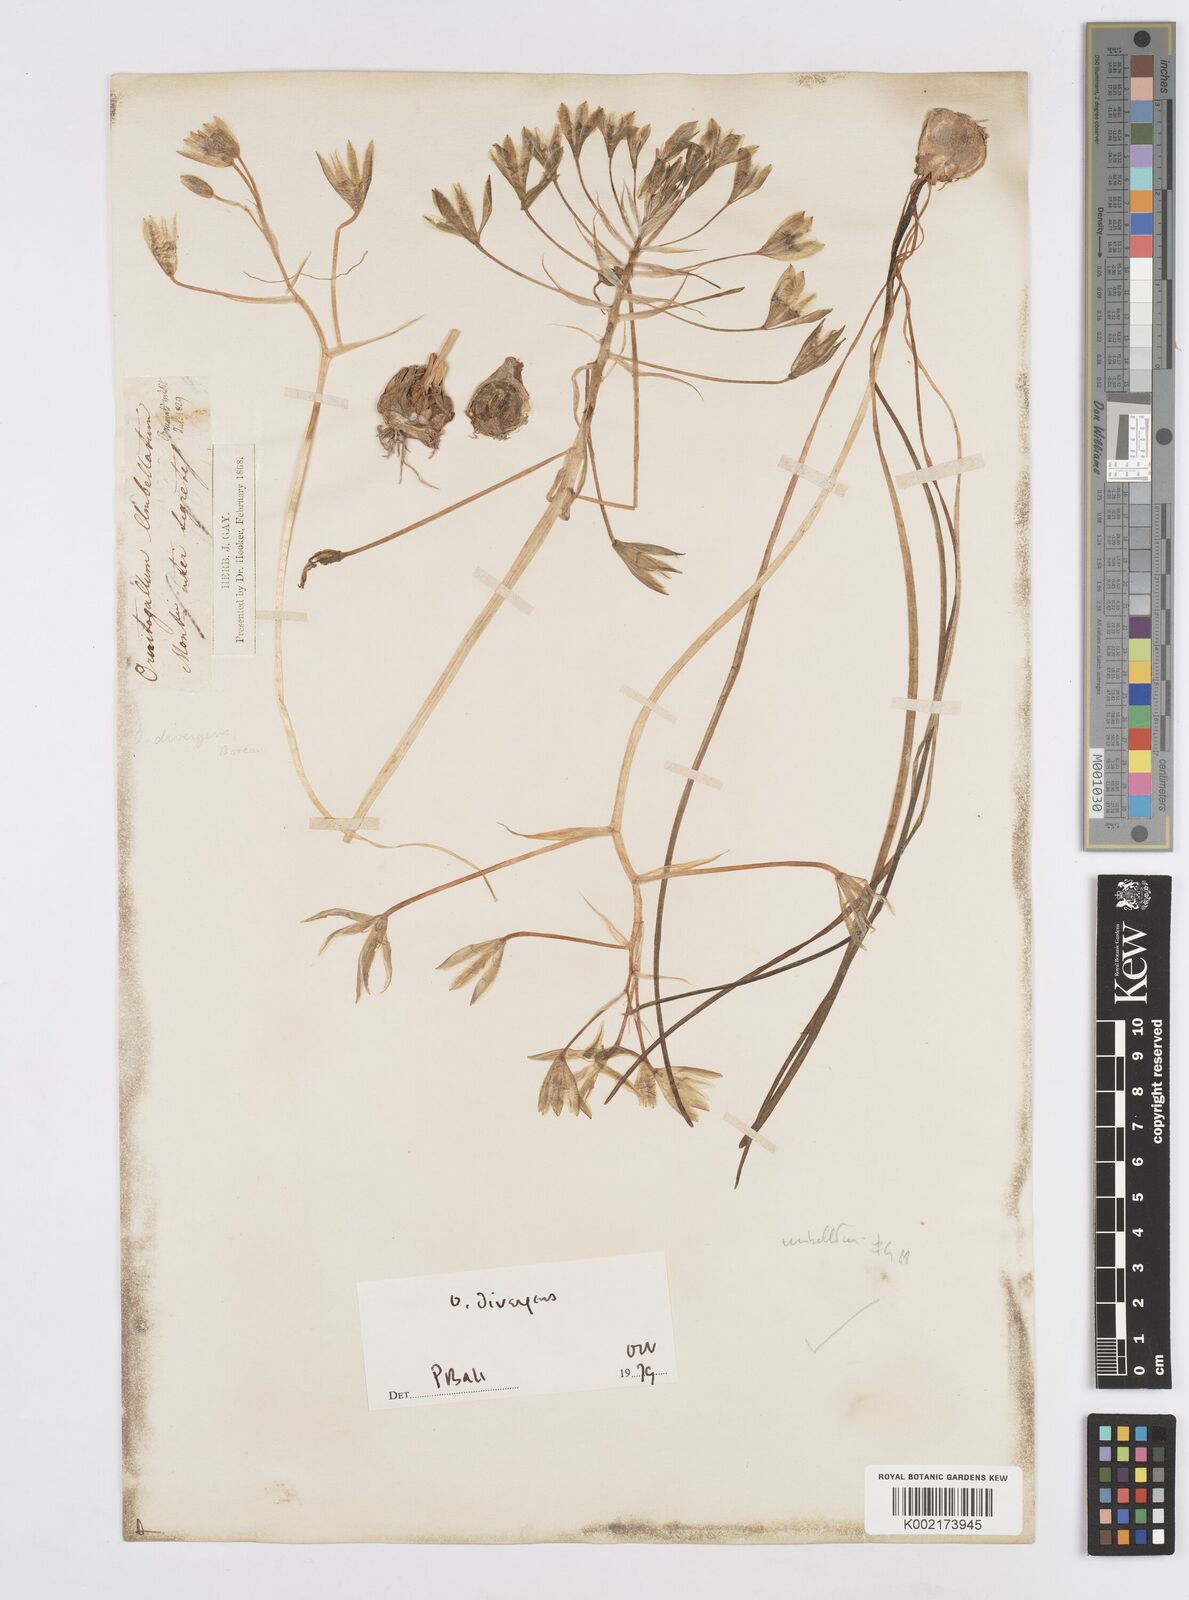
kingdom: Plantae
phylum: Tracheophyta
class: Liliopsida
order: Asparagales
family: Asparagaceae
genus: Ornithogalum
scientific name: Ornithogalum divergens
